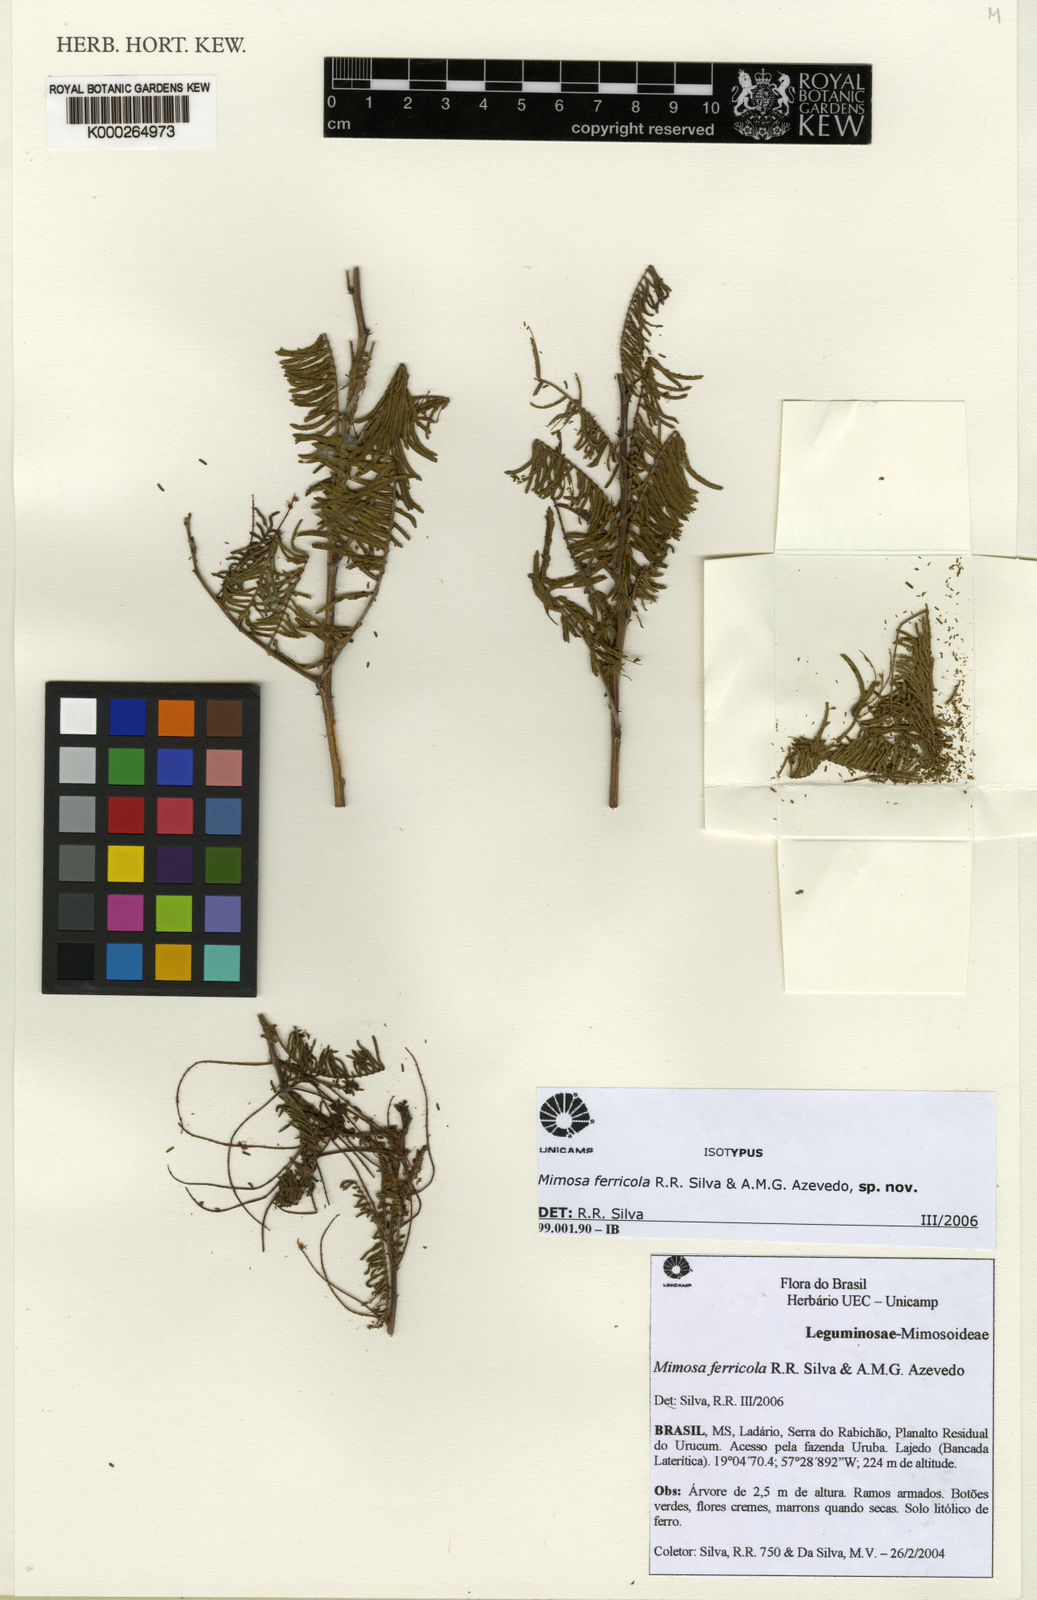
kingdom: Plantae
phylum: Tracheophyta
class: Magnoliopsida
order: Fabales
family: Fabaceae
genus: Mimosa
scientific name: Mimosa craspedisetosa
